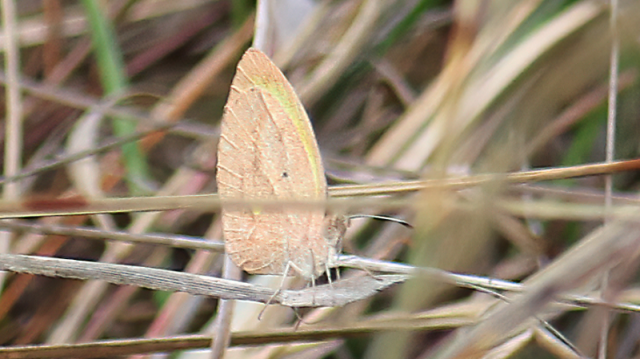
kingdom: Animalia
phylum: Arthropoda
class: Insecta
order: Lepidoptera
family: Pieridae
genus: Abaeis
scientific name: Abaeis nicippe
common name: Sleepy Orange
